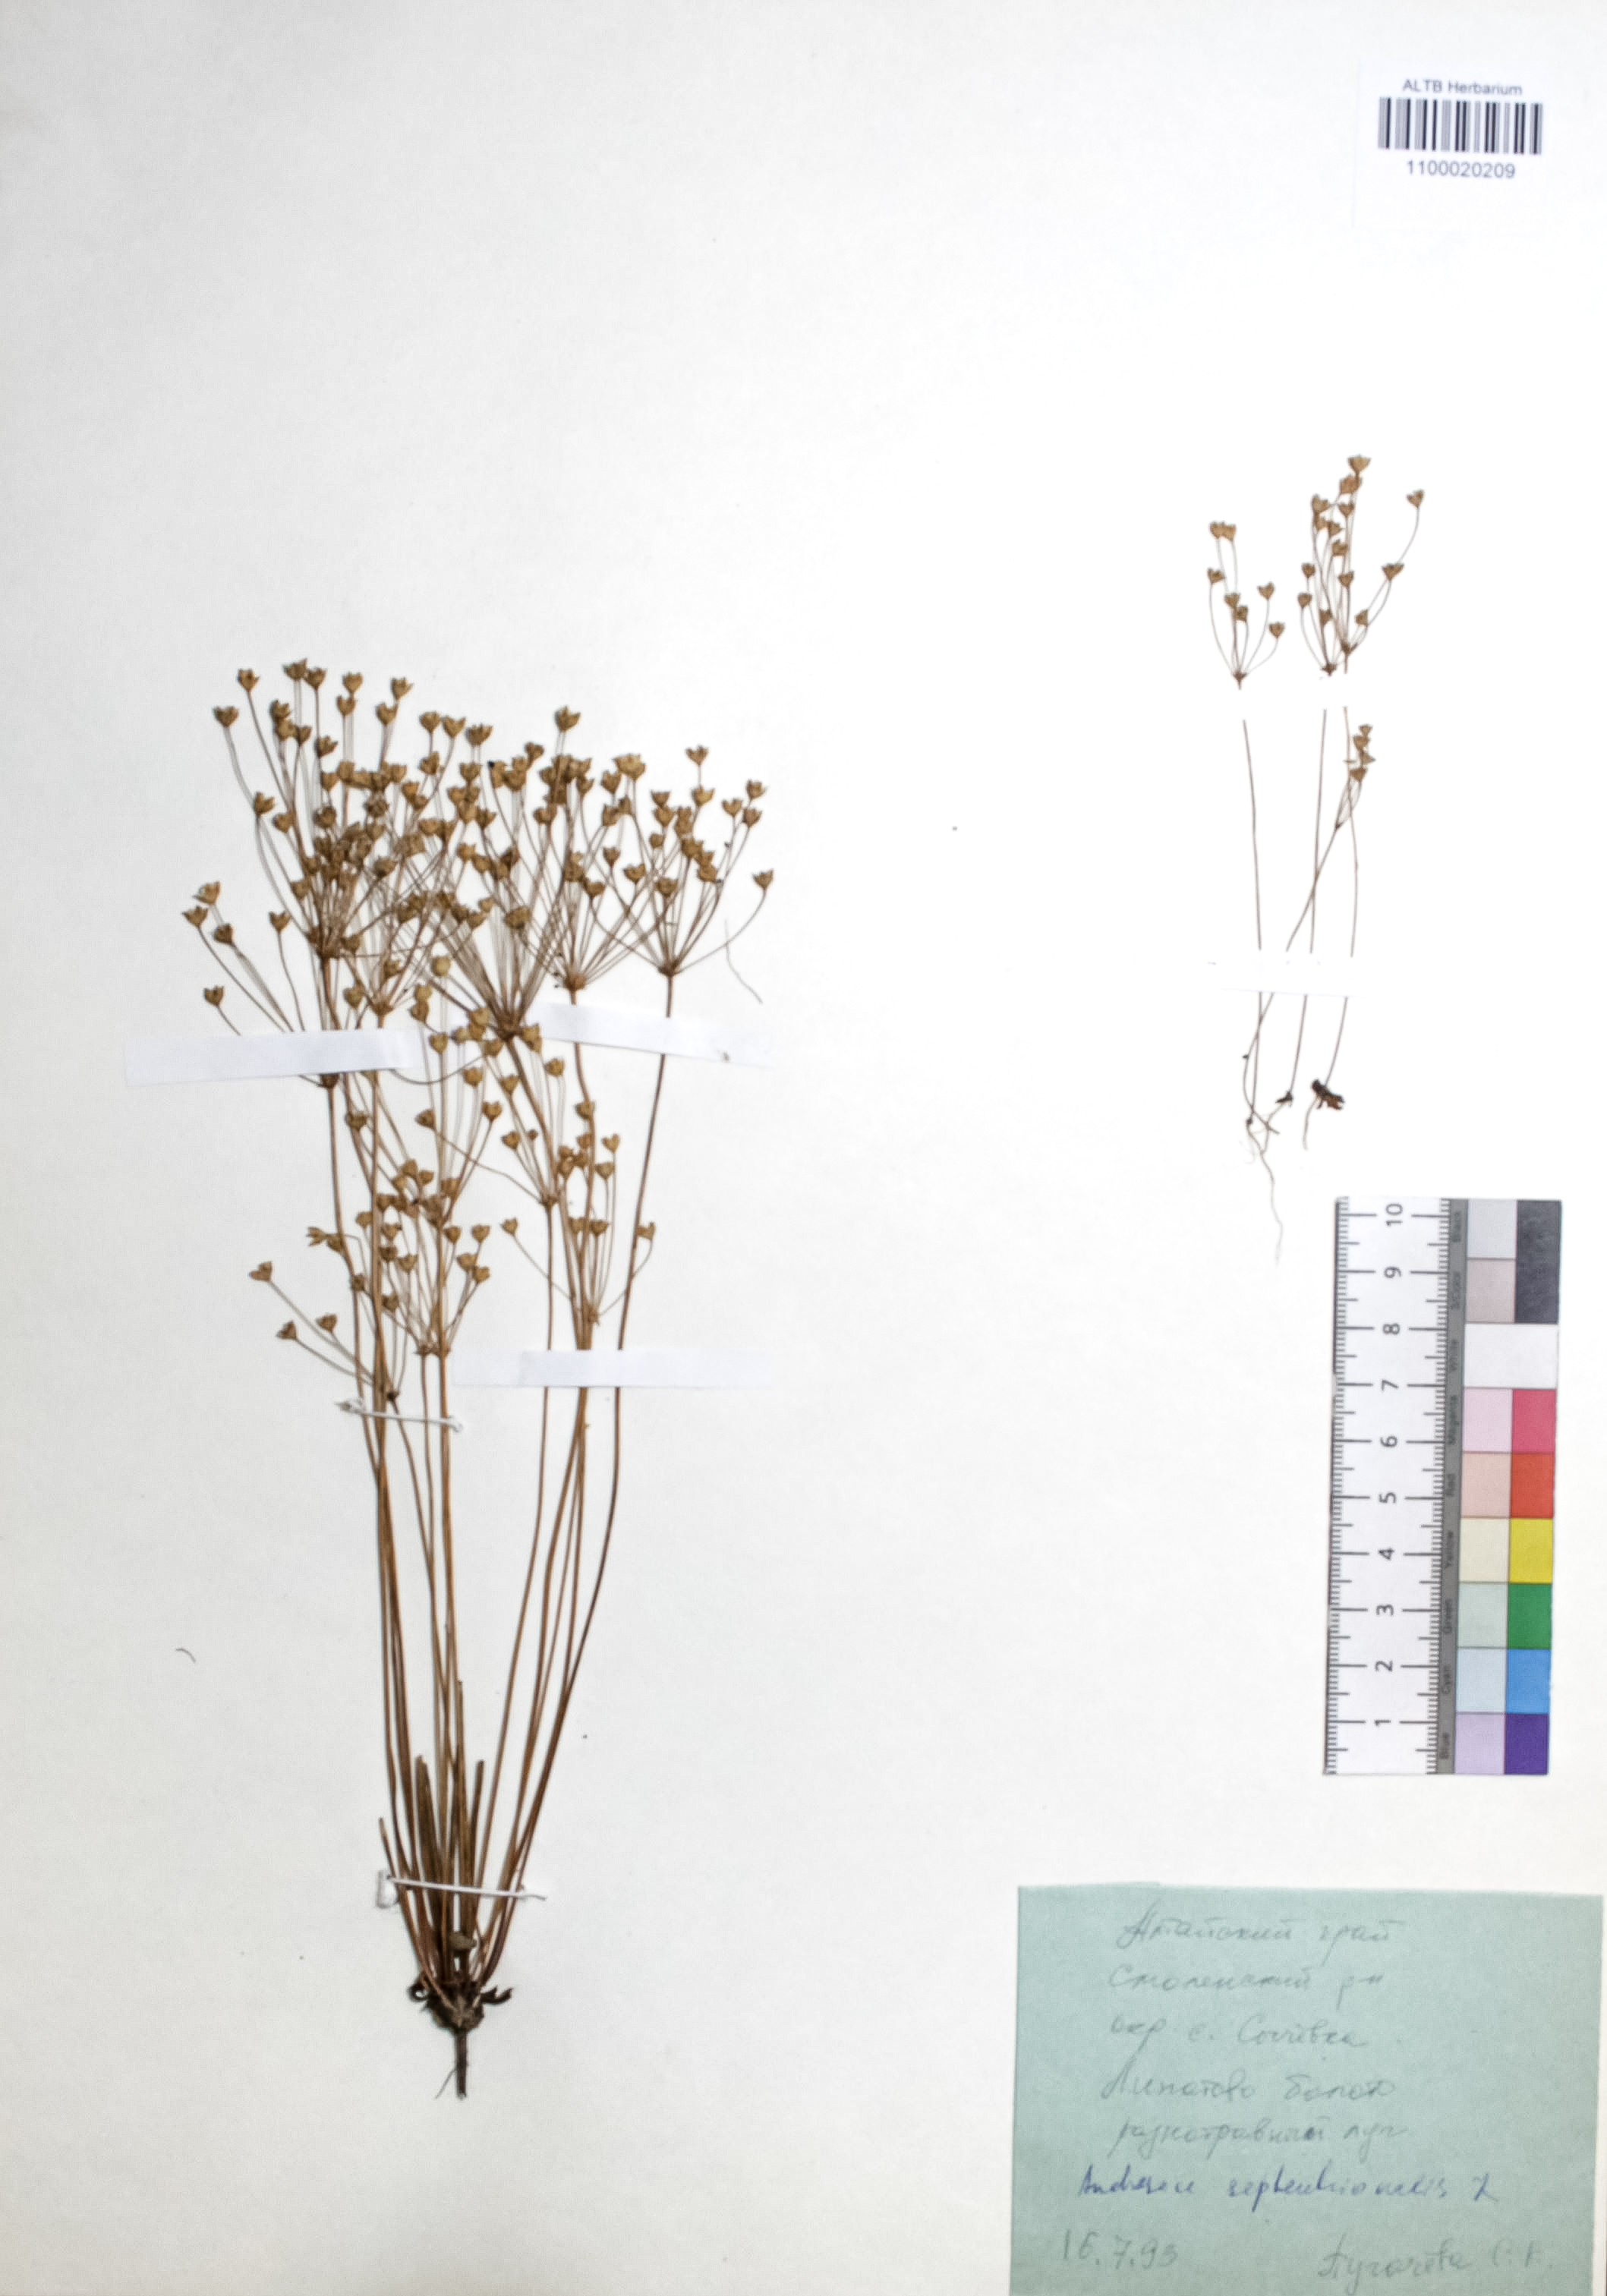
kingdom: Plantae
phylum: Tracheophyta
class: Magnoliopsida
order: Ericales
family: Primulaceae
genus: Androsace
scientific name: Androsace septentrionalis
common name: Hairy northern fairy-candelabra
